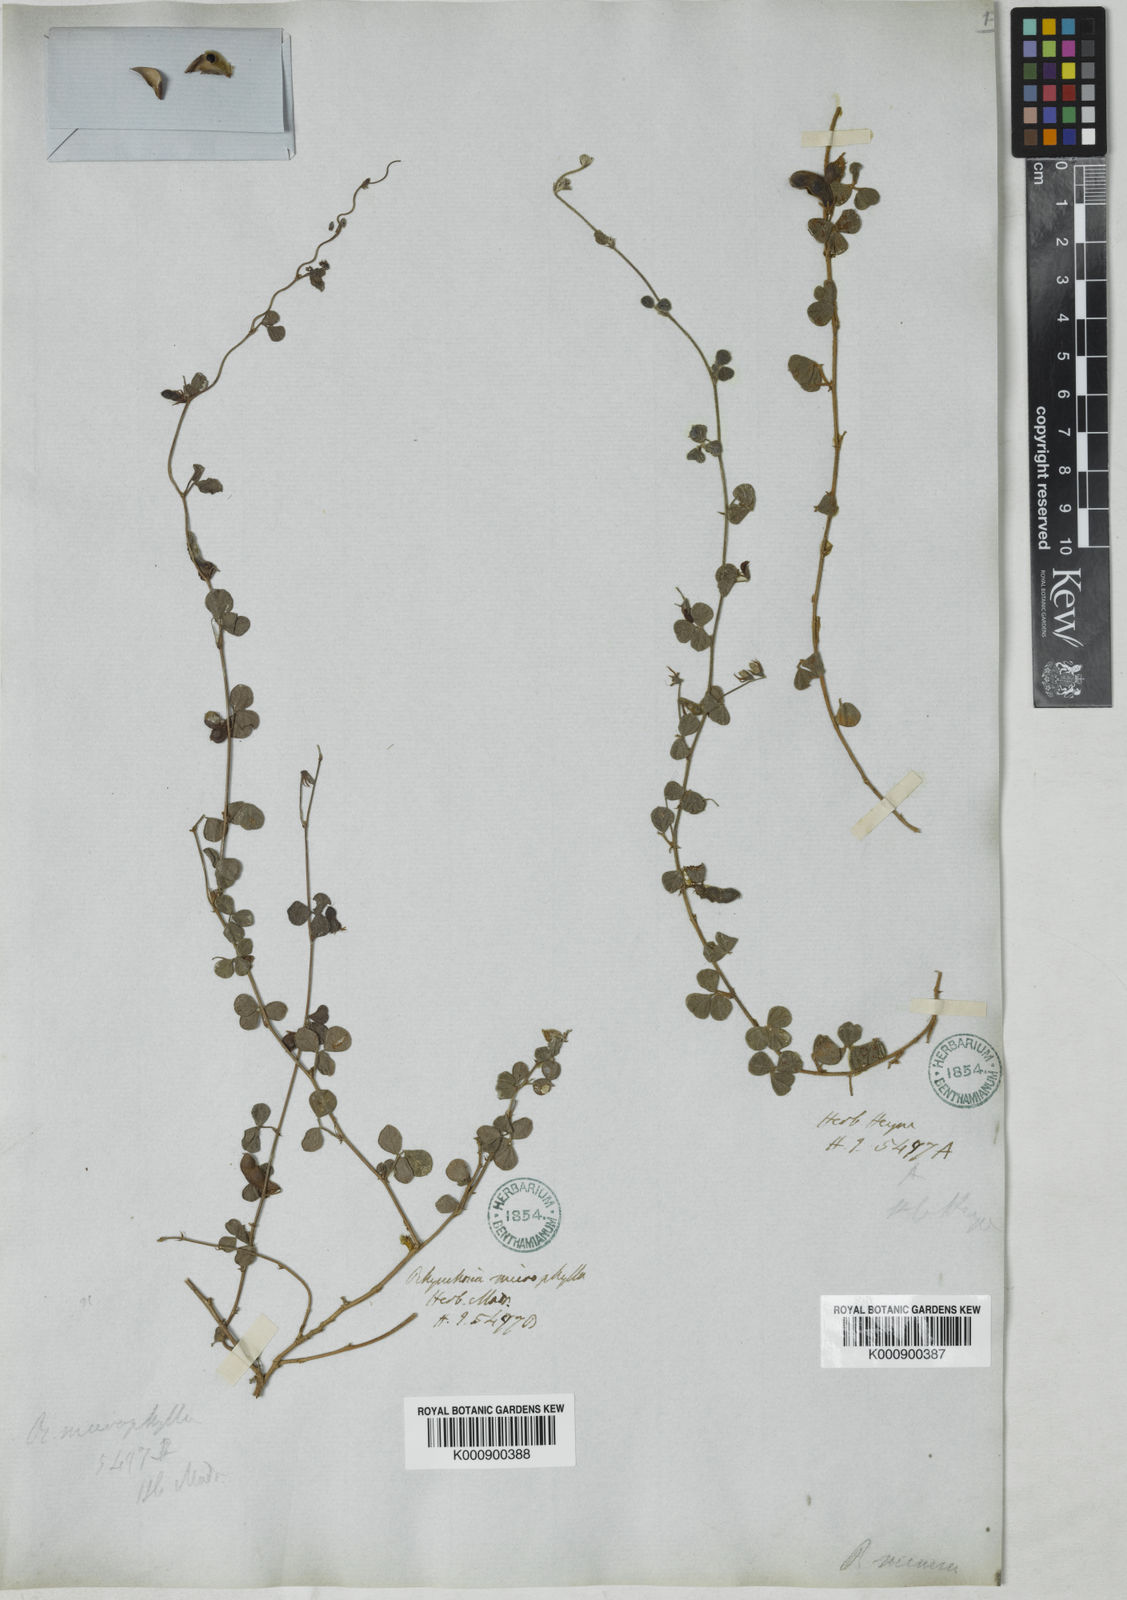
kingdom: Plantae
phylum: Tracheophyta
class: Magnoliopsida
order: Fabales
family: Fabaceae
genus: Rhynchosia
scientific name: Rhynchosia minima
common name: Least snoutbean
